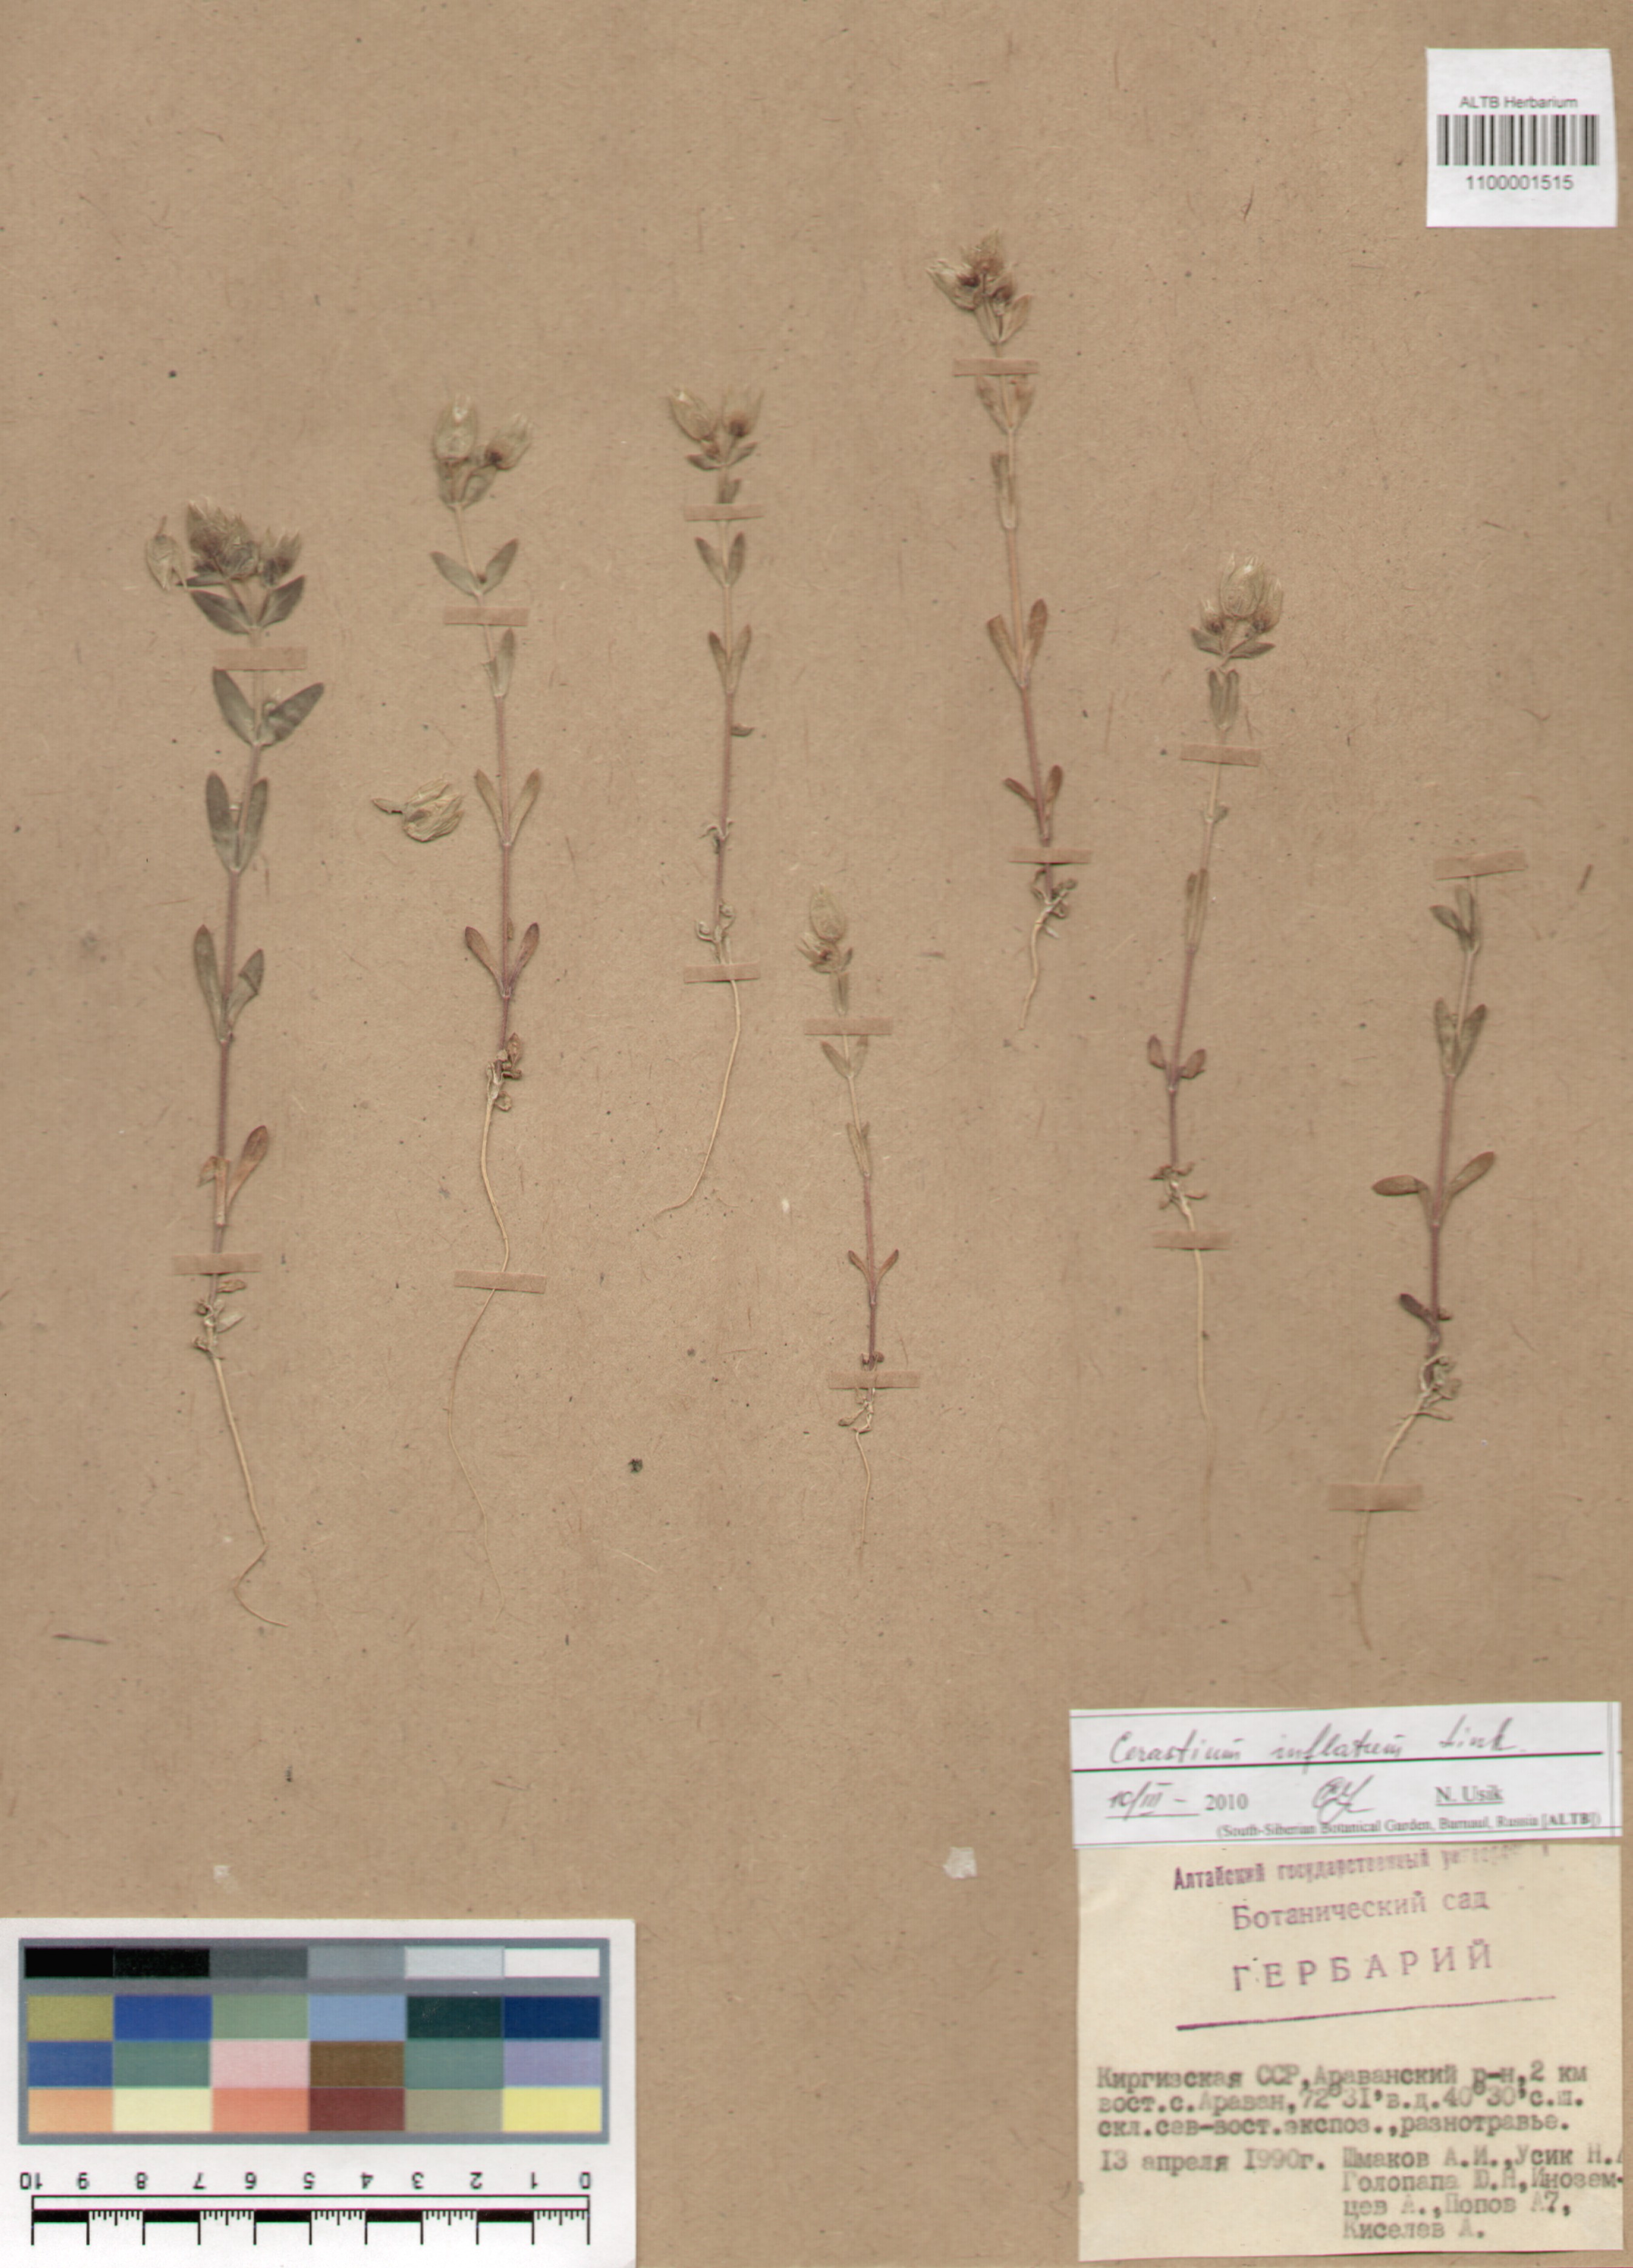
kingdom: Plantae
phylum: Tracheophyta
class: Magnoliopsida
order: Caryophyllales
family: Caryophyllaceae
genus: Cerastium
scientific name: Cerastium inflatum
